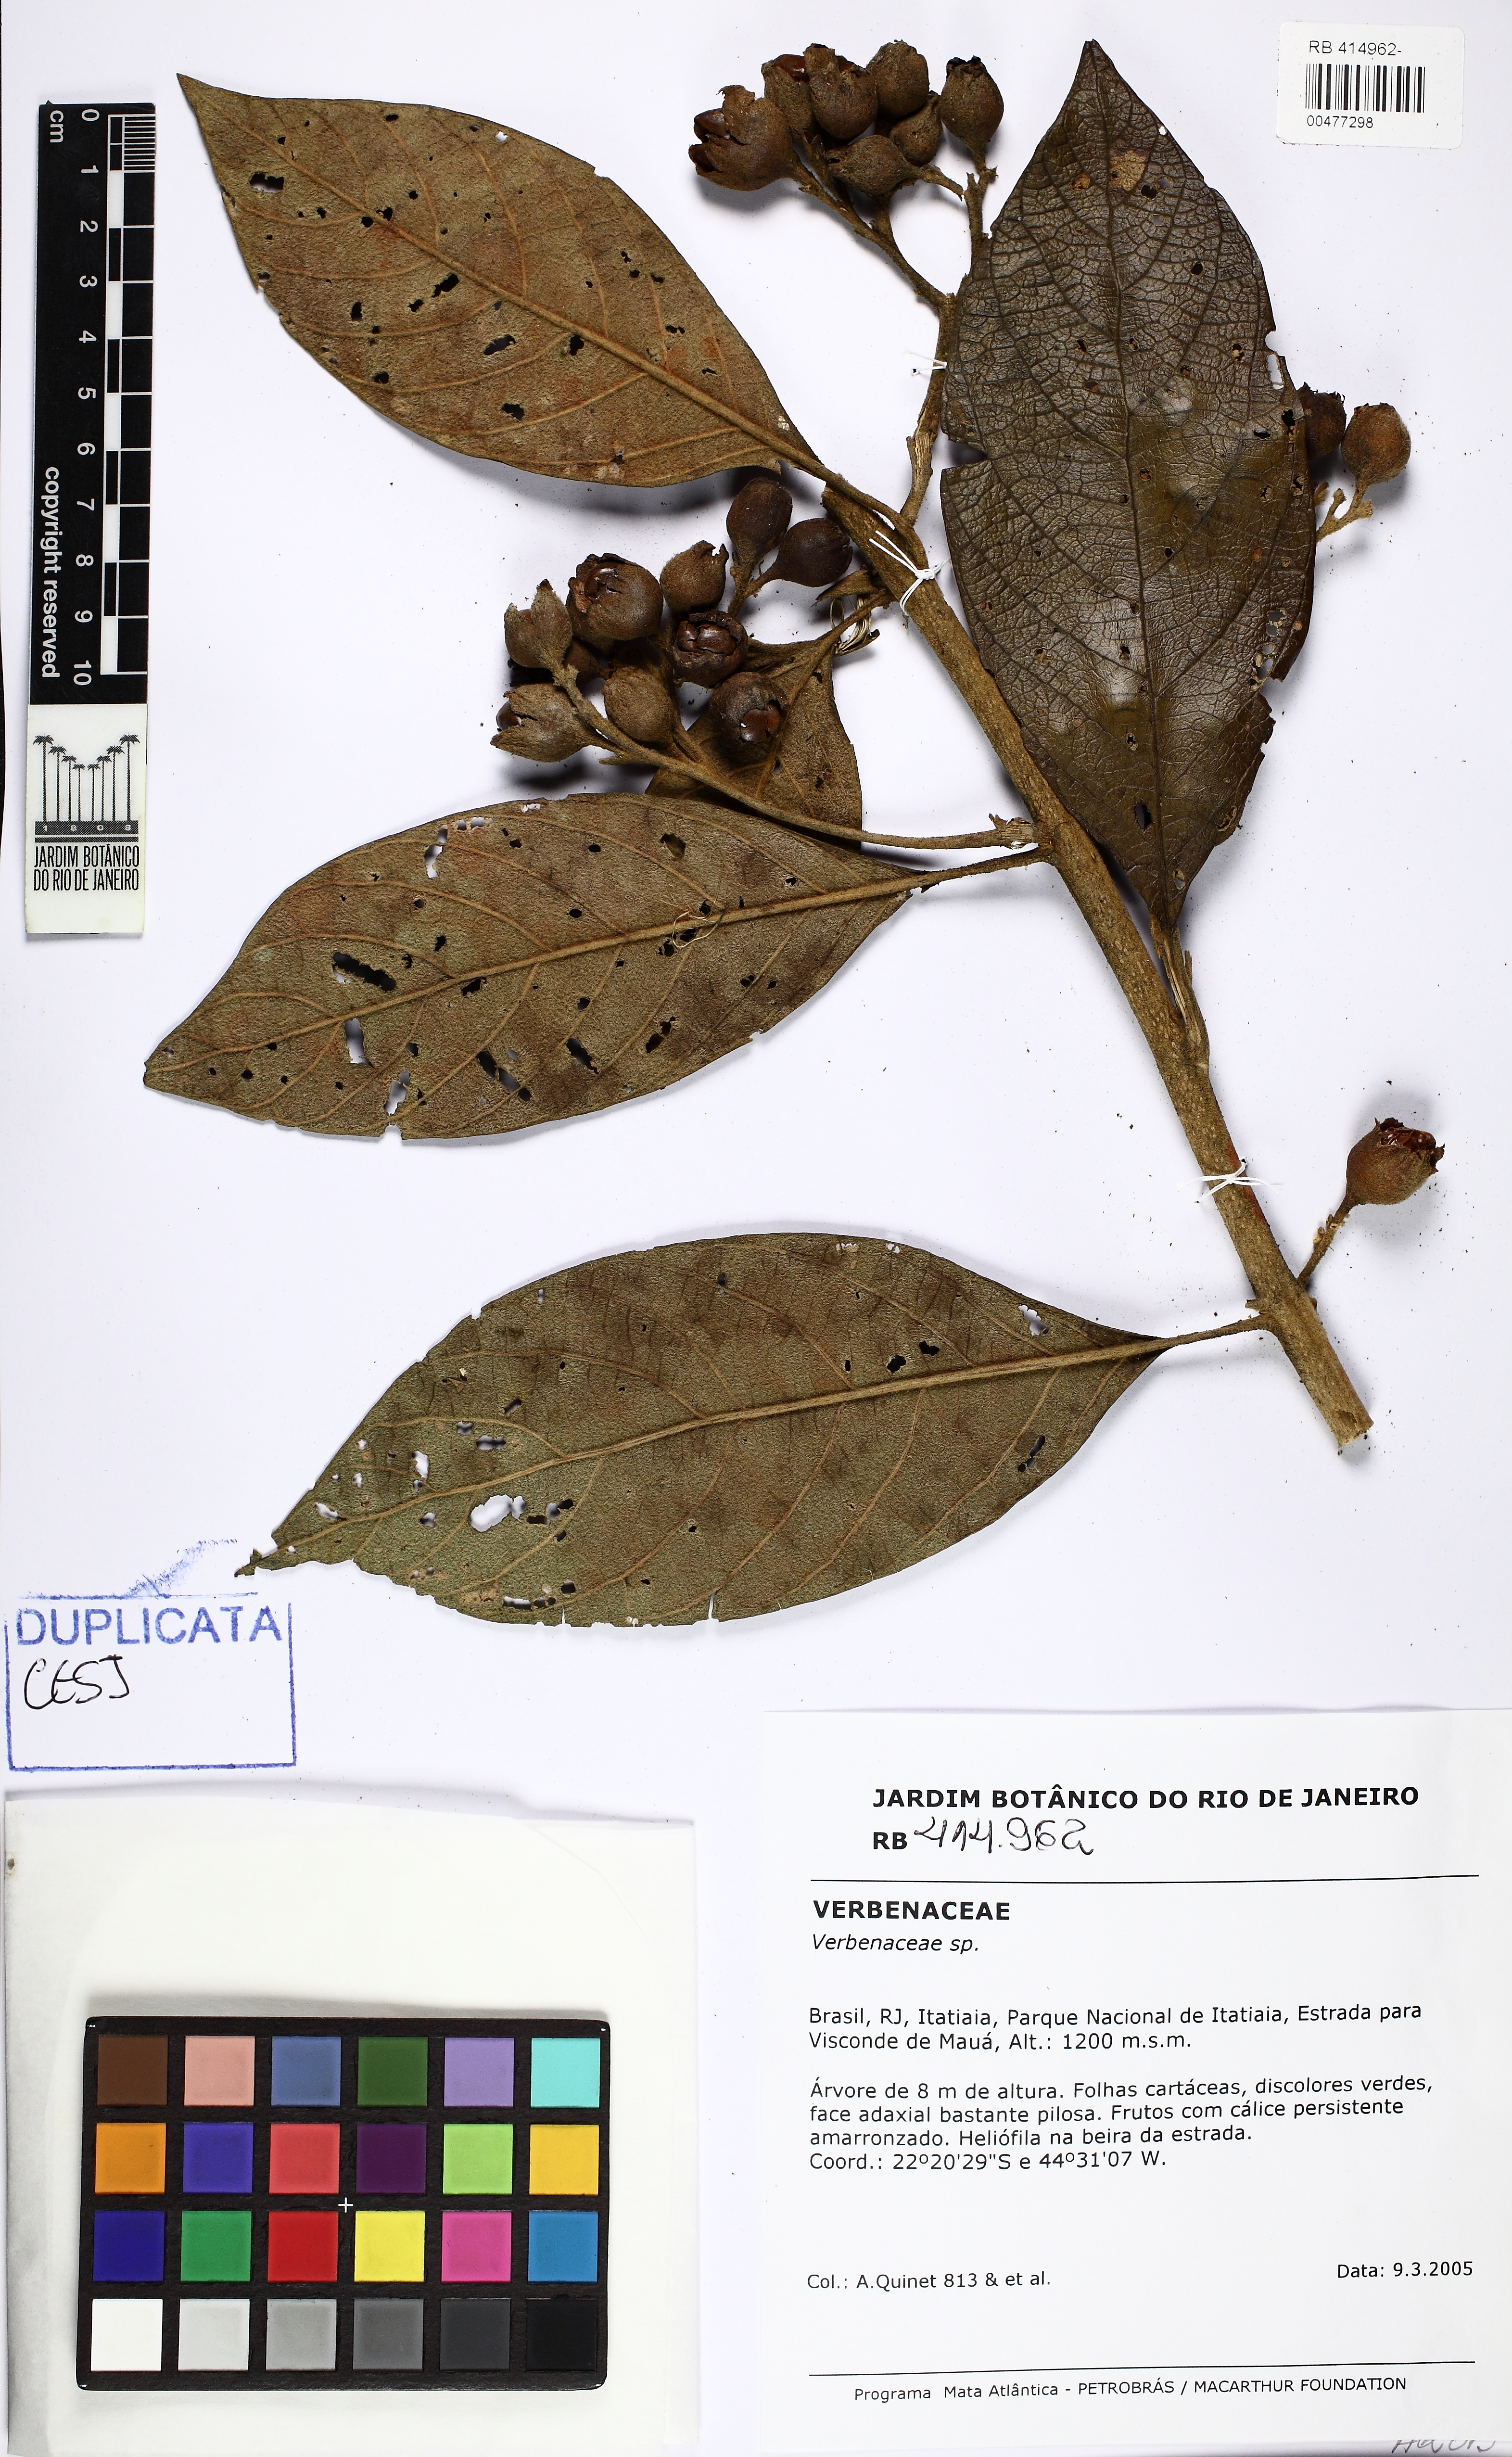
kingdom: Plantae
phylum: Tracheophyta
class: Magnoliopsida
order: Lamiales
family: Verbenaceae
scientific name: Verbenaceae
